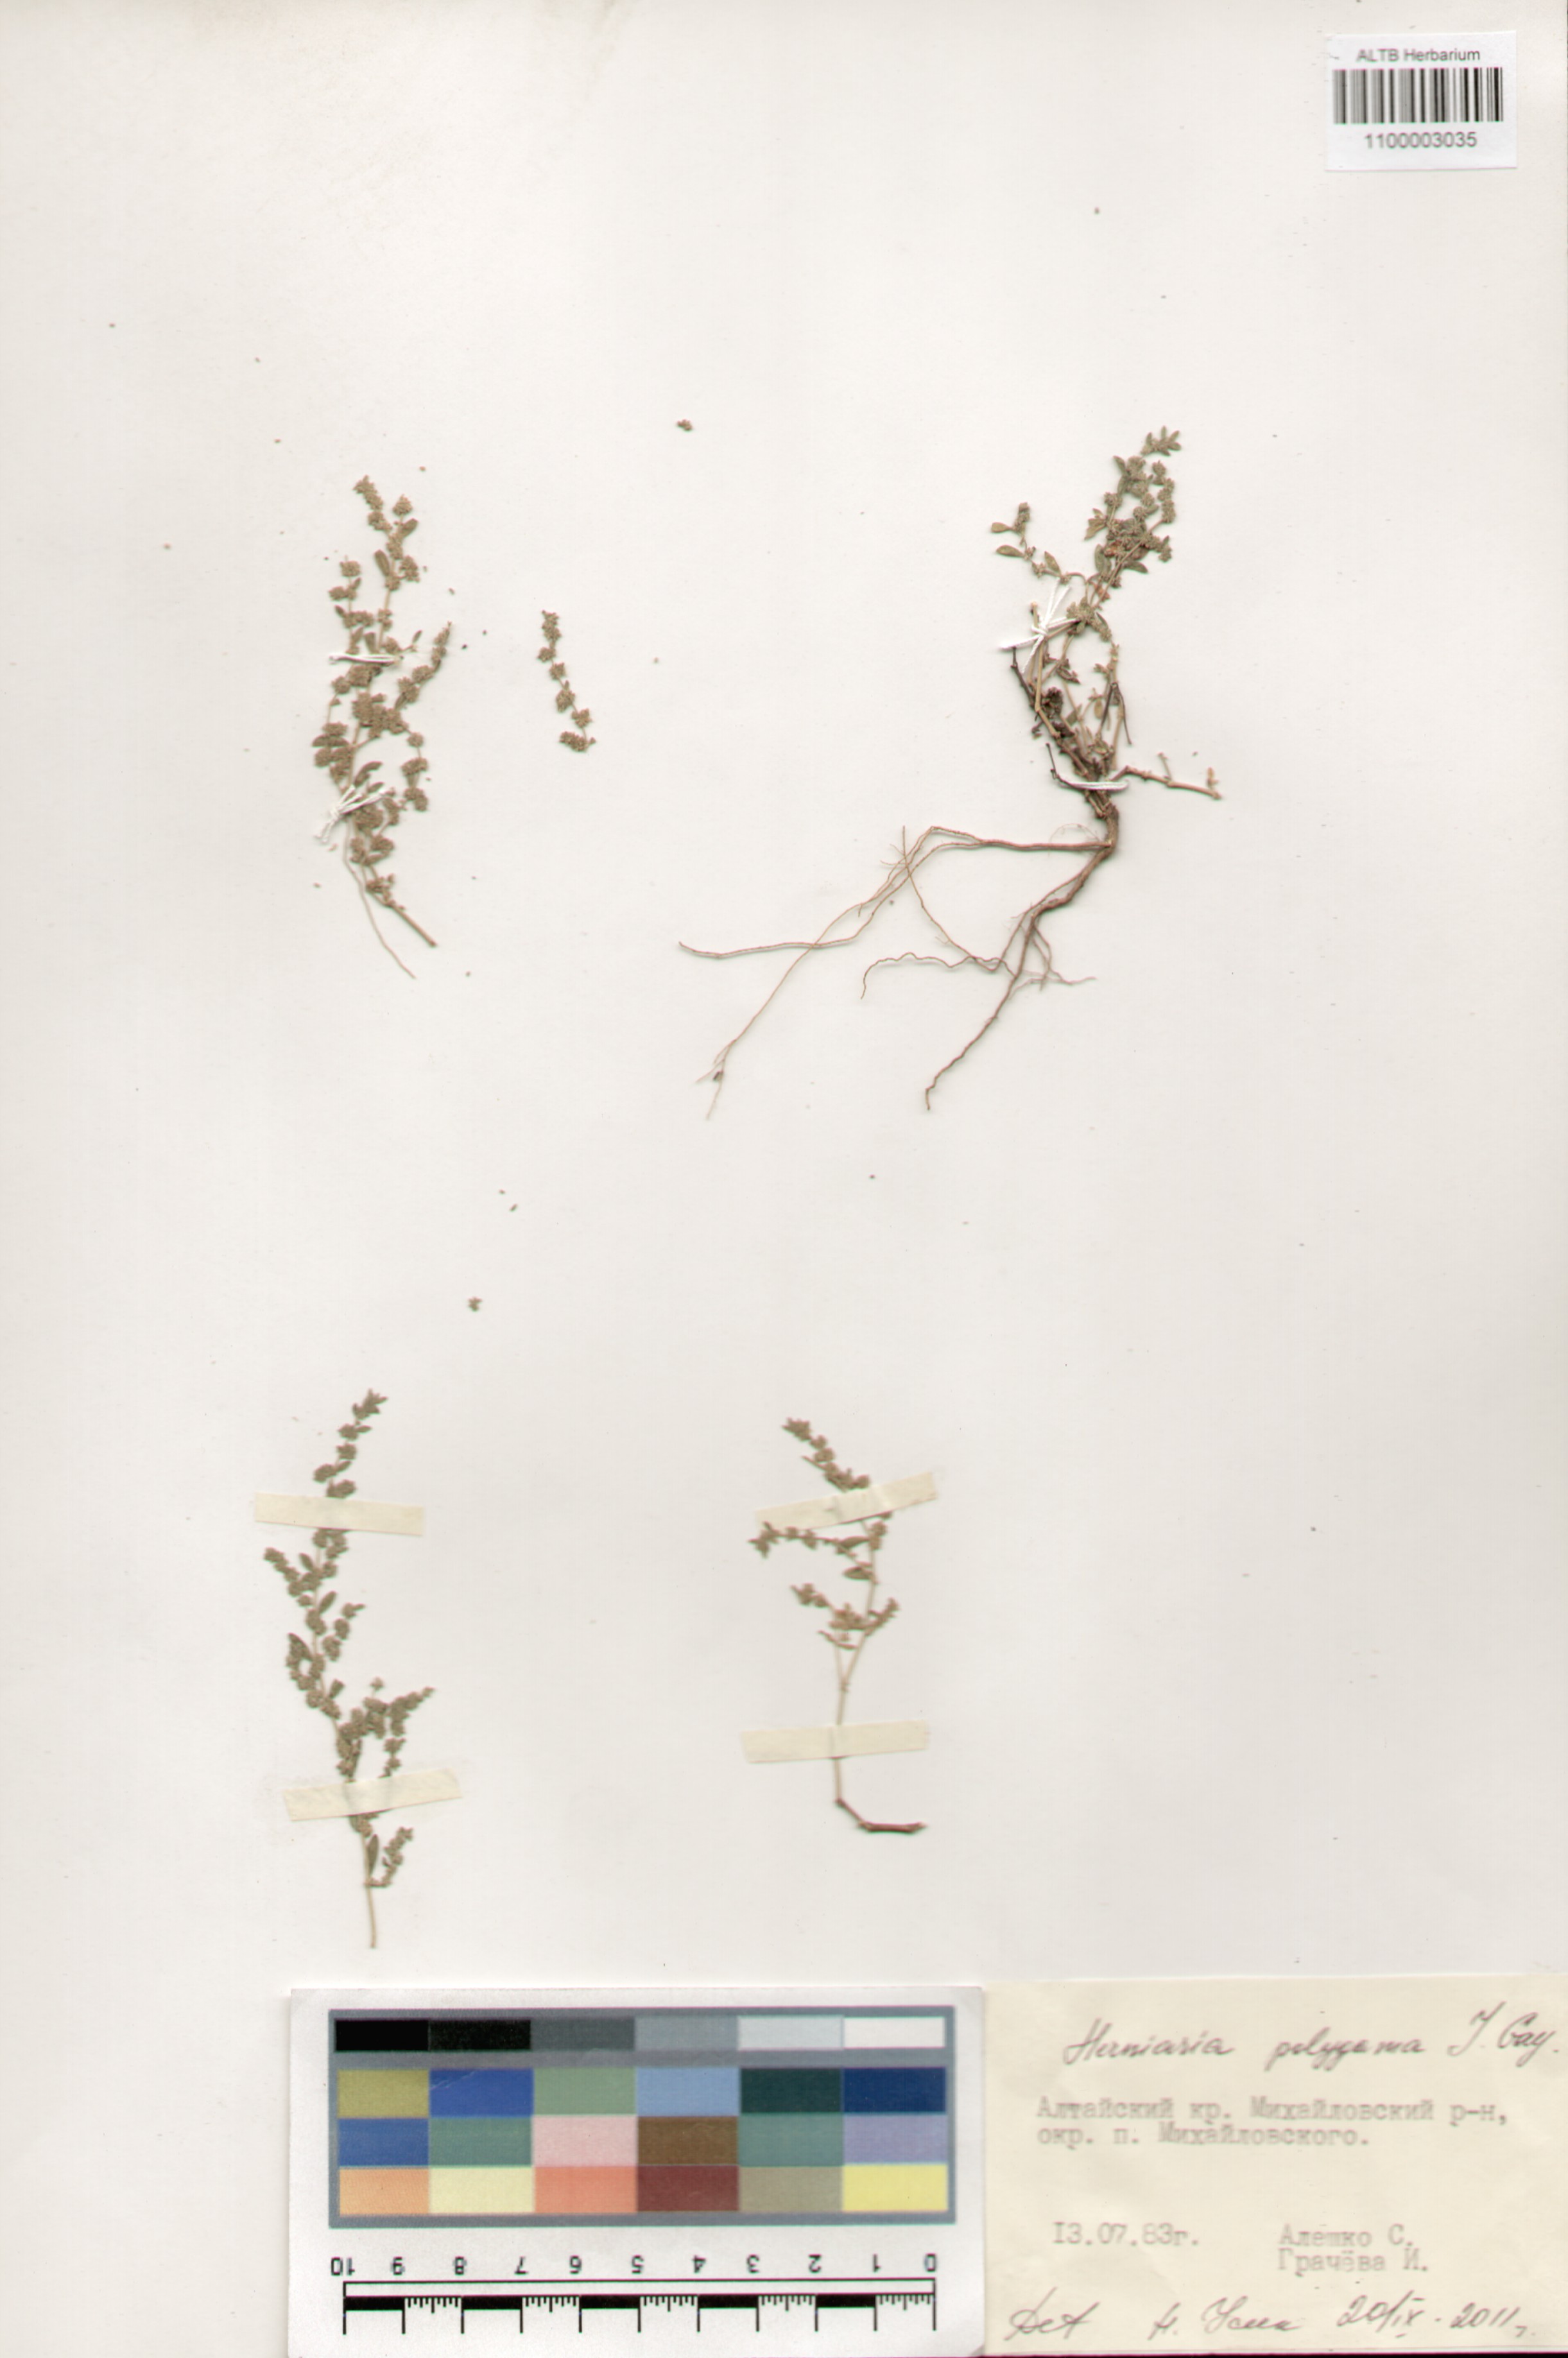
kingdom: Plantae
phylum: Tracheophyta
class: Magnoliopsida
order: Caryophyllales
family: Caryophyllaceae
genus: Herniaria
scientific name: Herniaria polygama
